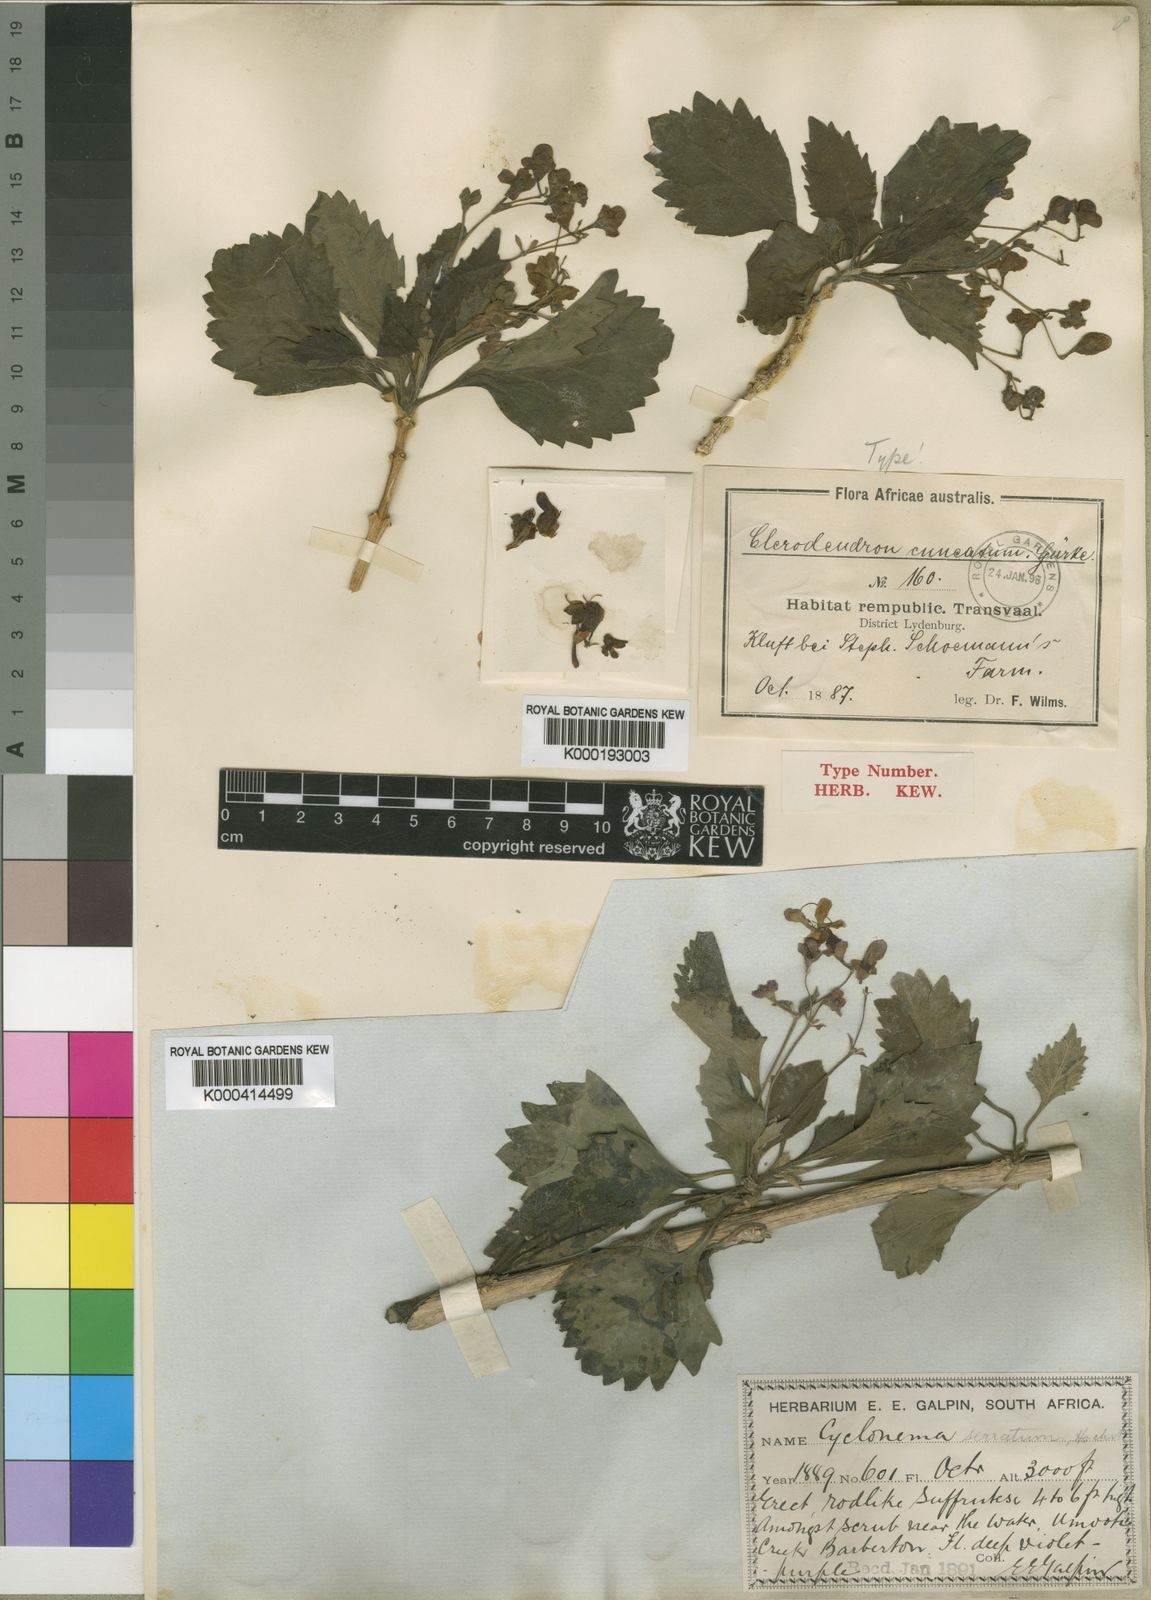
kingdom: Plantae
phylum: Tracheophyta
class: Magnoliopsida
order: Lamiales
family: Lamiaceae
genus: Clerodendrum
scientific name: Clerodendrum
